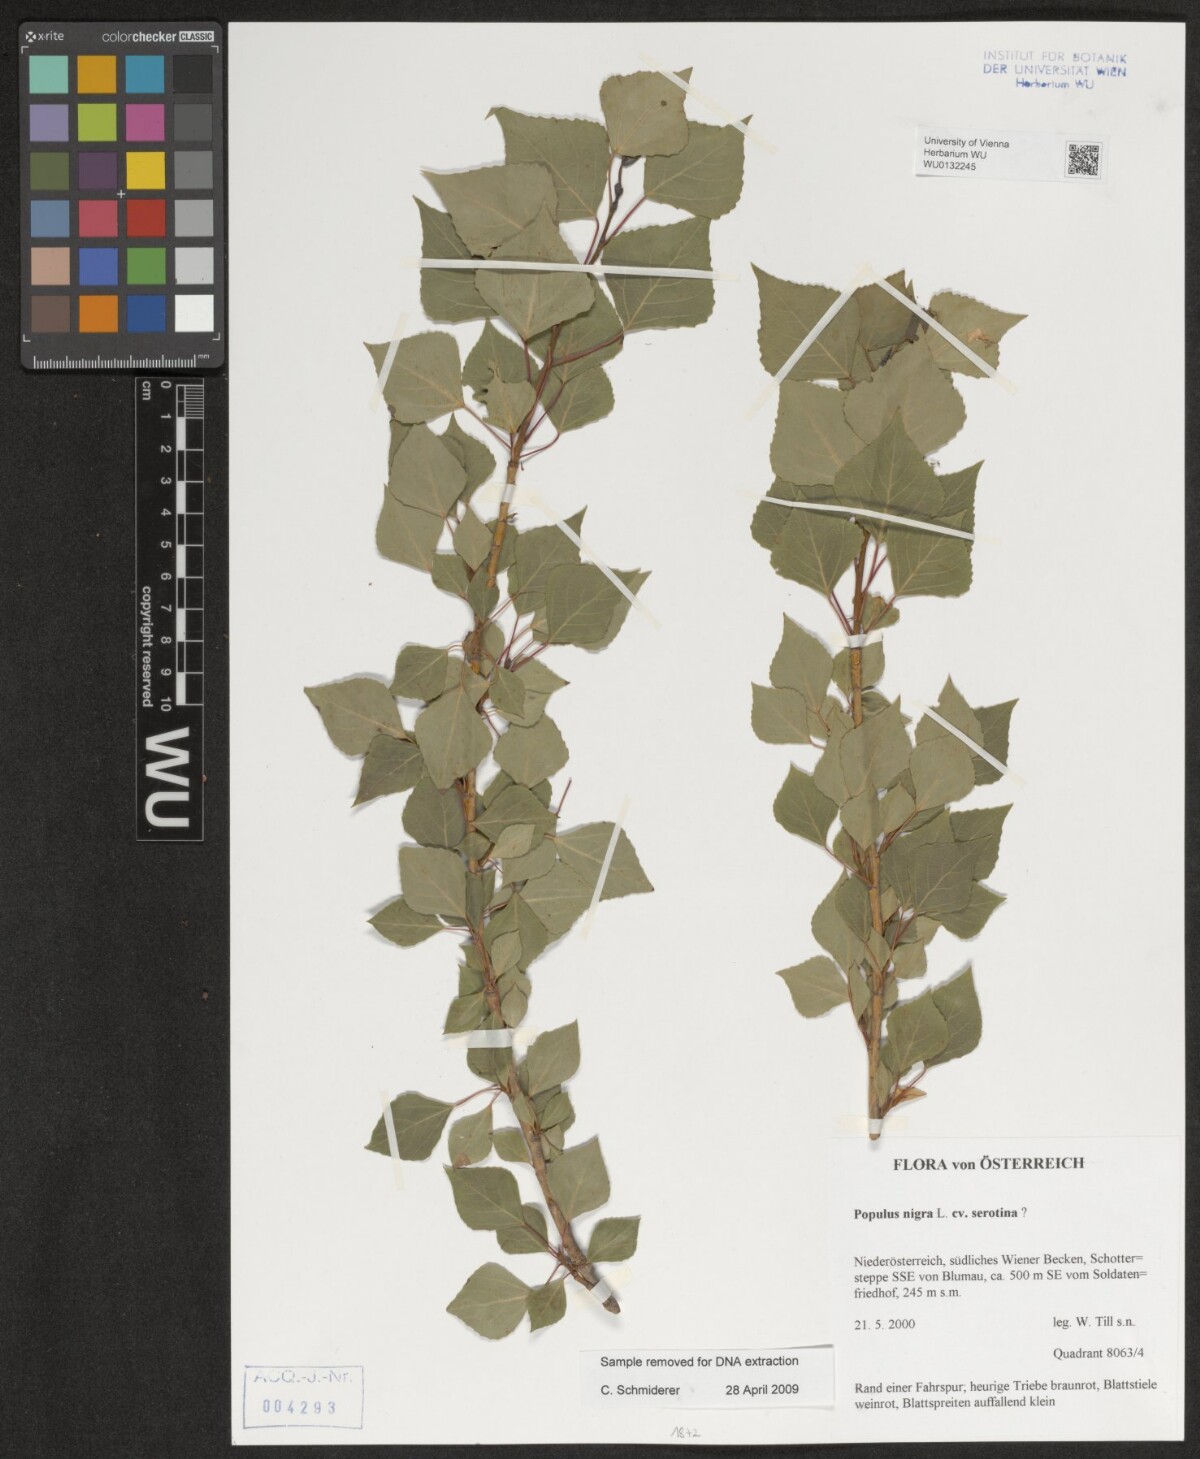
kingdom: Plantae
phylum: Tracheophyta
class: Magnoliopsida
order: Malpighiales
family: Salicaceae
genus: Populus
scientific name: Populus nigra
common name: Black poplar
